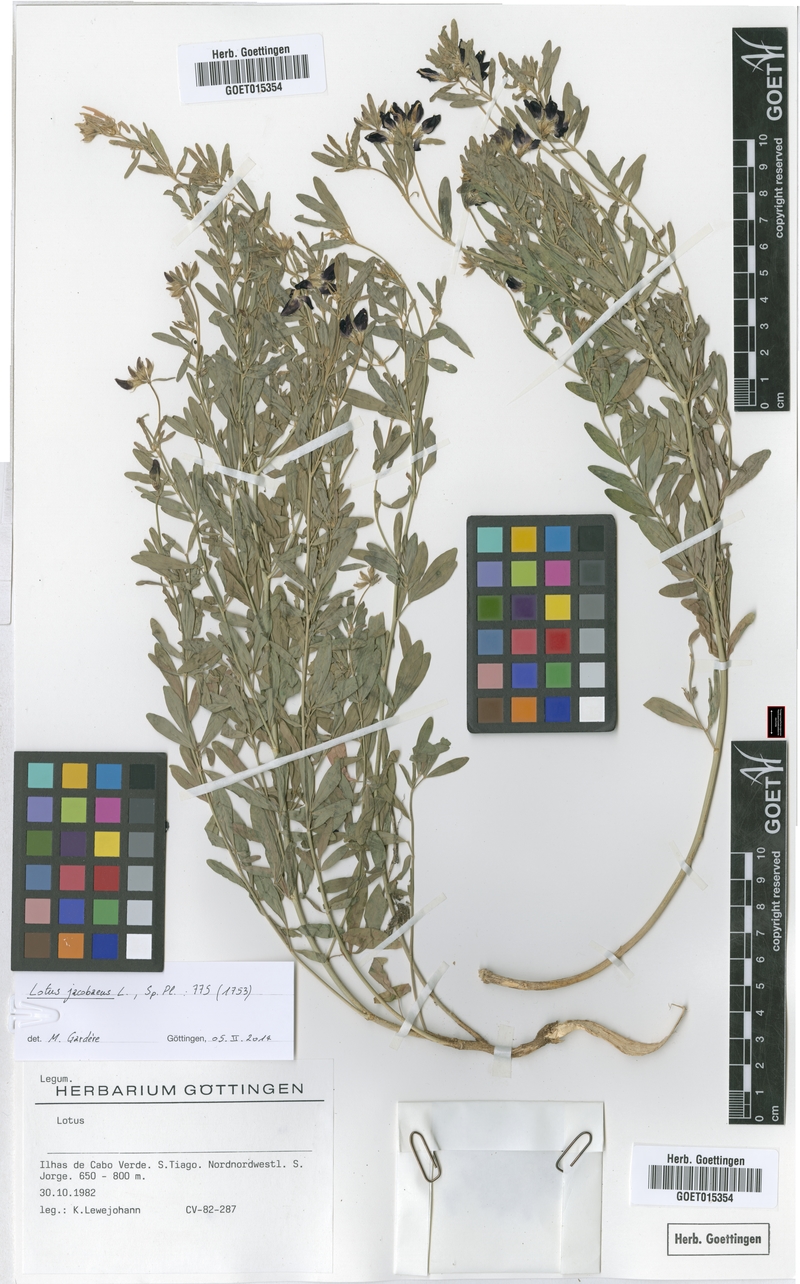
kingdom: Plantae
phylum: Tracheophyta
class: Magnoliopsida
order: Fabales
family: Fabaceae
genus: Lotus
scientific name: Lotus jacobaeus
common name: St. james's trefoil
